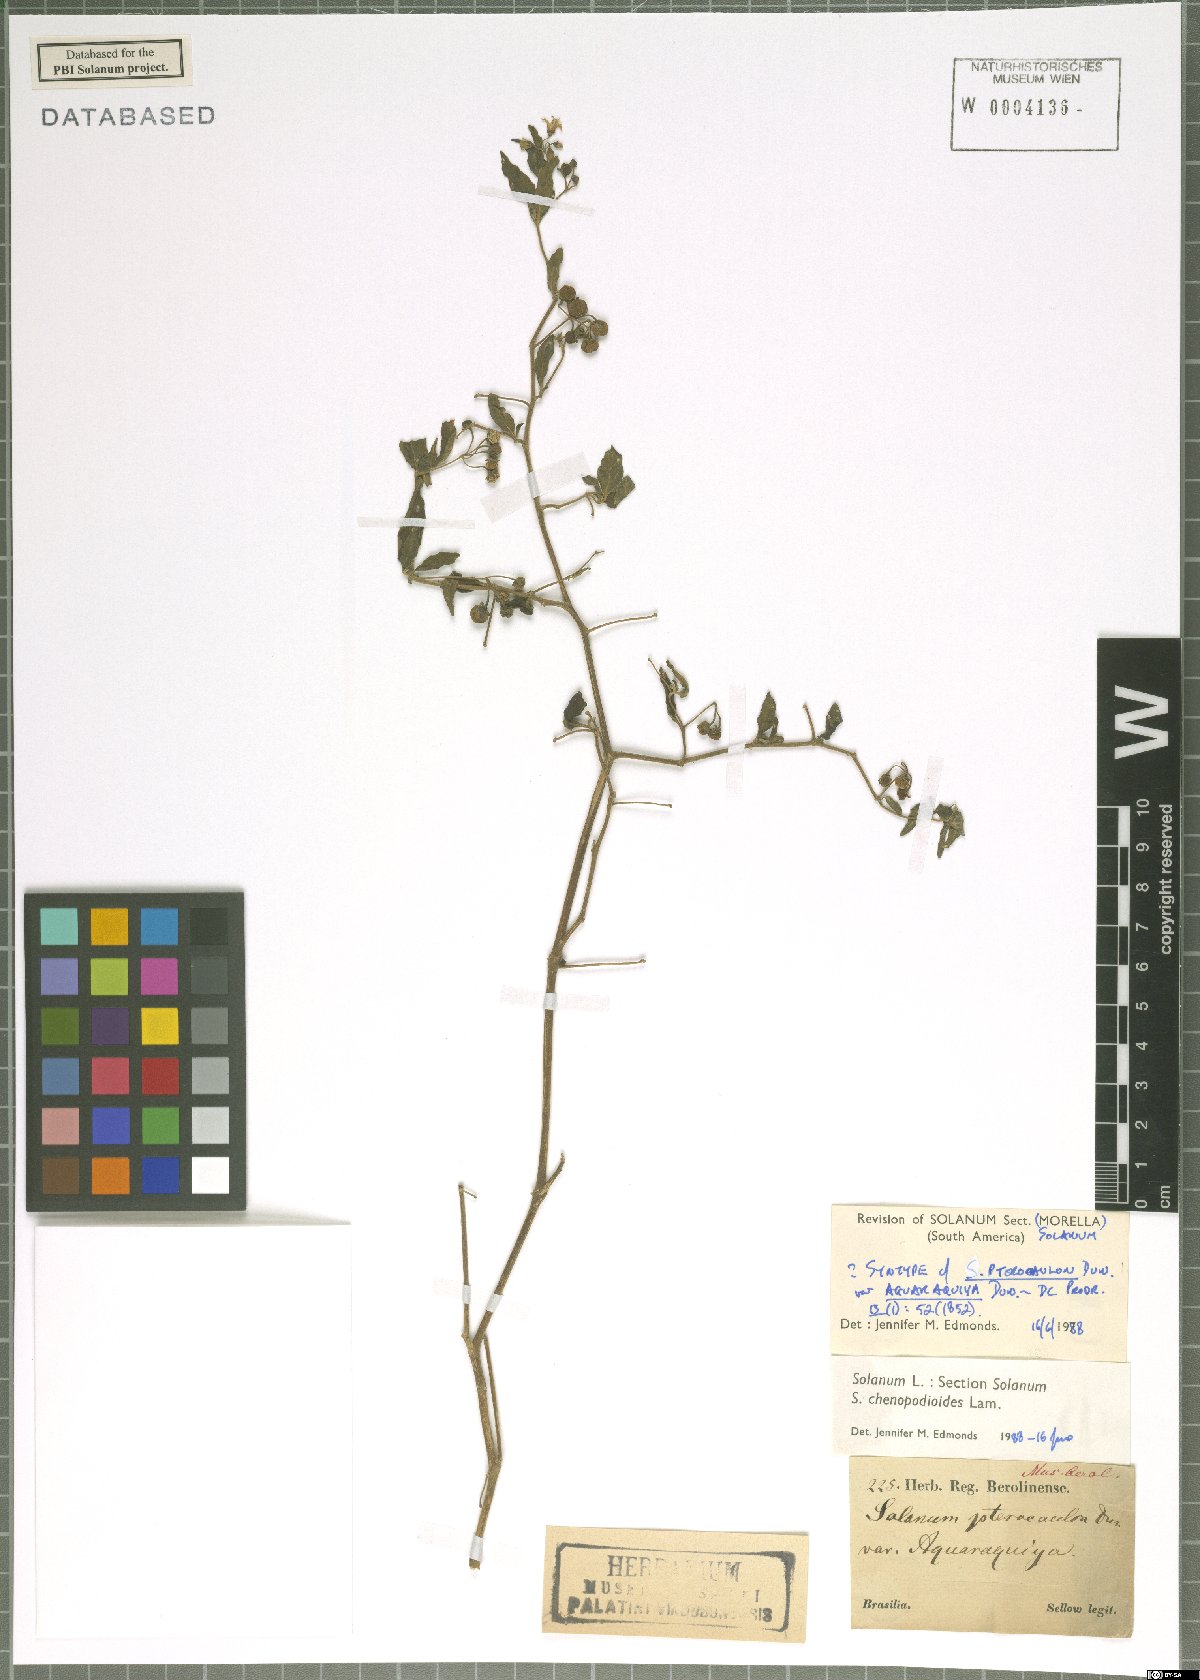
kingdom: Plantae
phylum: Tracheophyta
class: Magnoliopsida
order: Solanales
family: Solanaceae
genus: Solanum
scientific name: Solanum chenopodioides
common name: Tall nightshade
